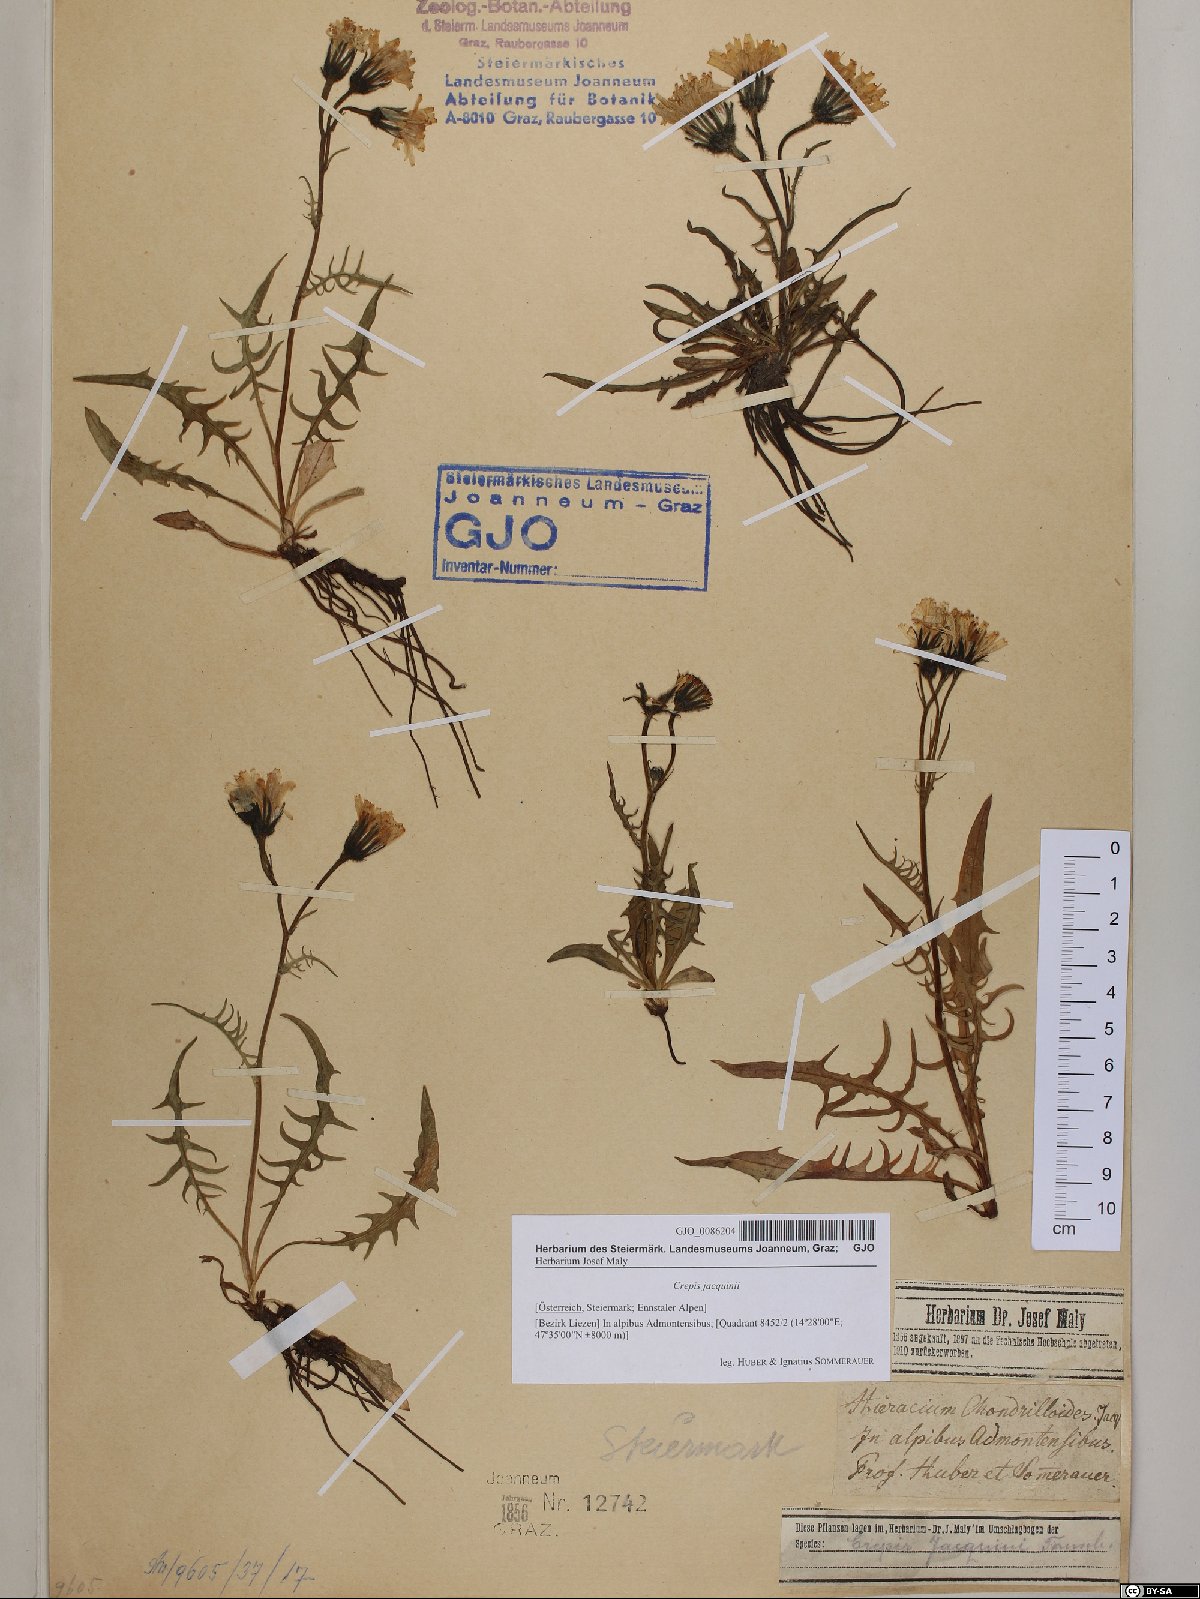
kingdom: Plantae
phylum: Tracheophyta
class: Magnoliopsida
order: Asterales
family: Asteraceae
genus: Crepis
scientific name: Crepis jacquinii
